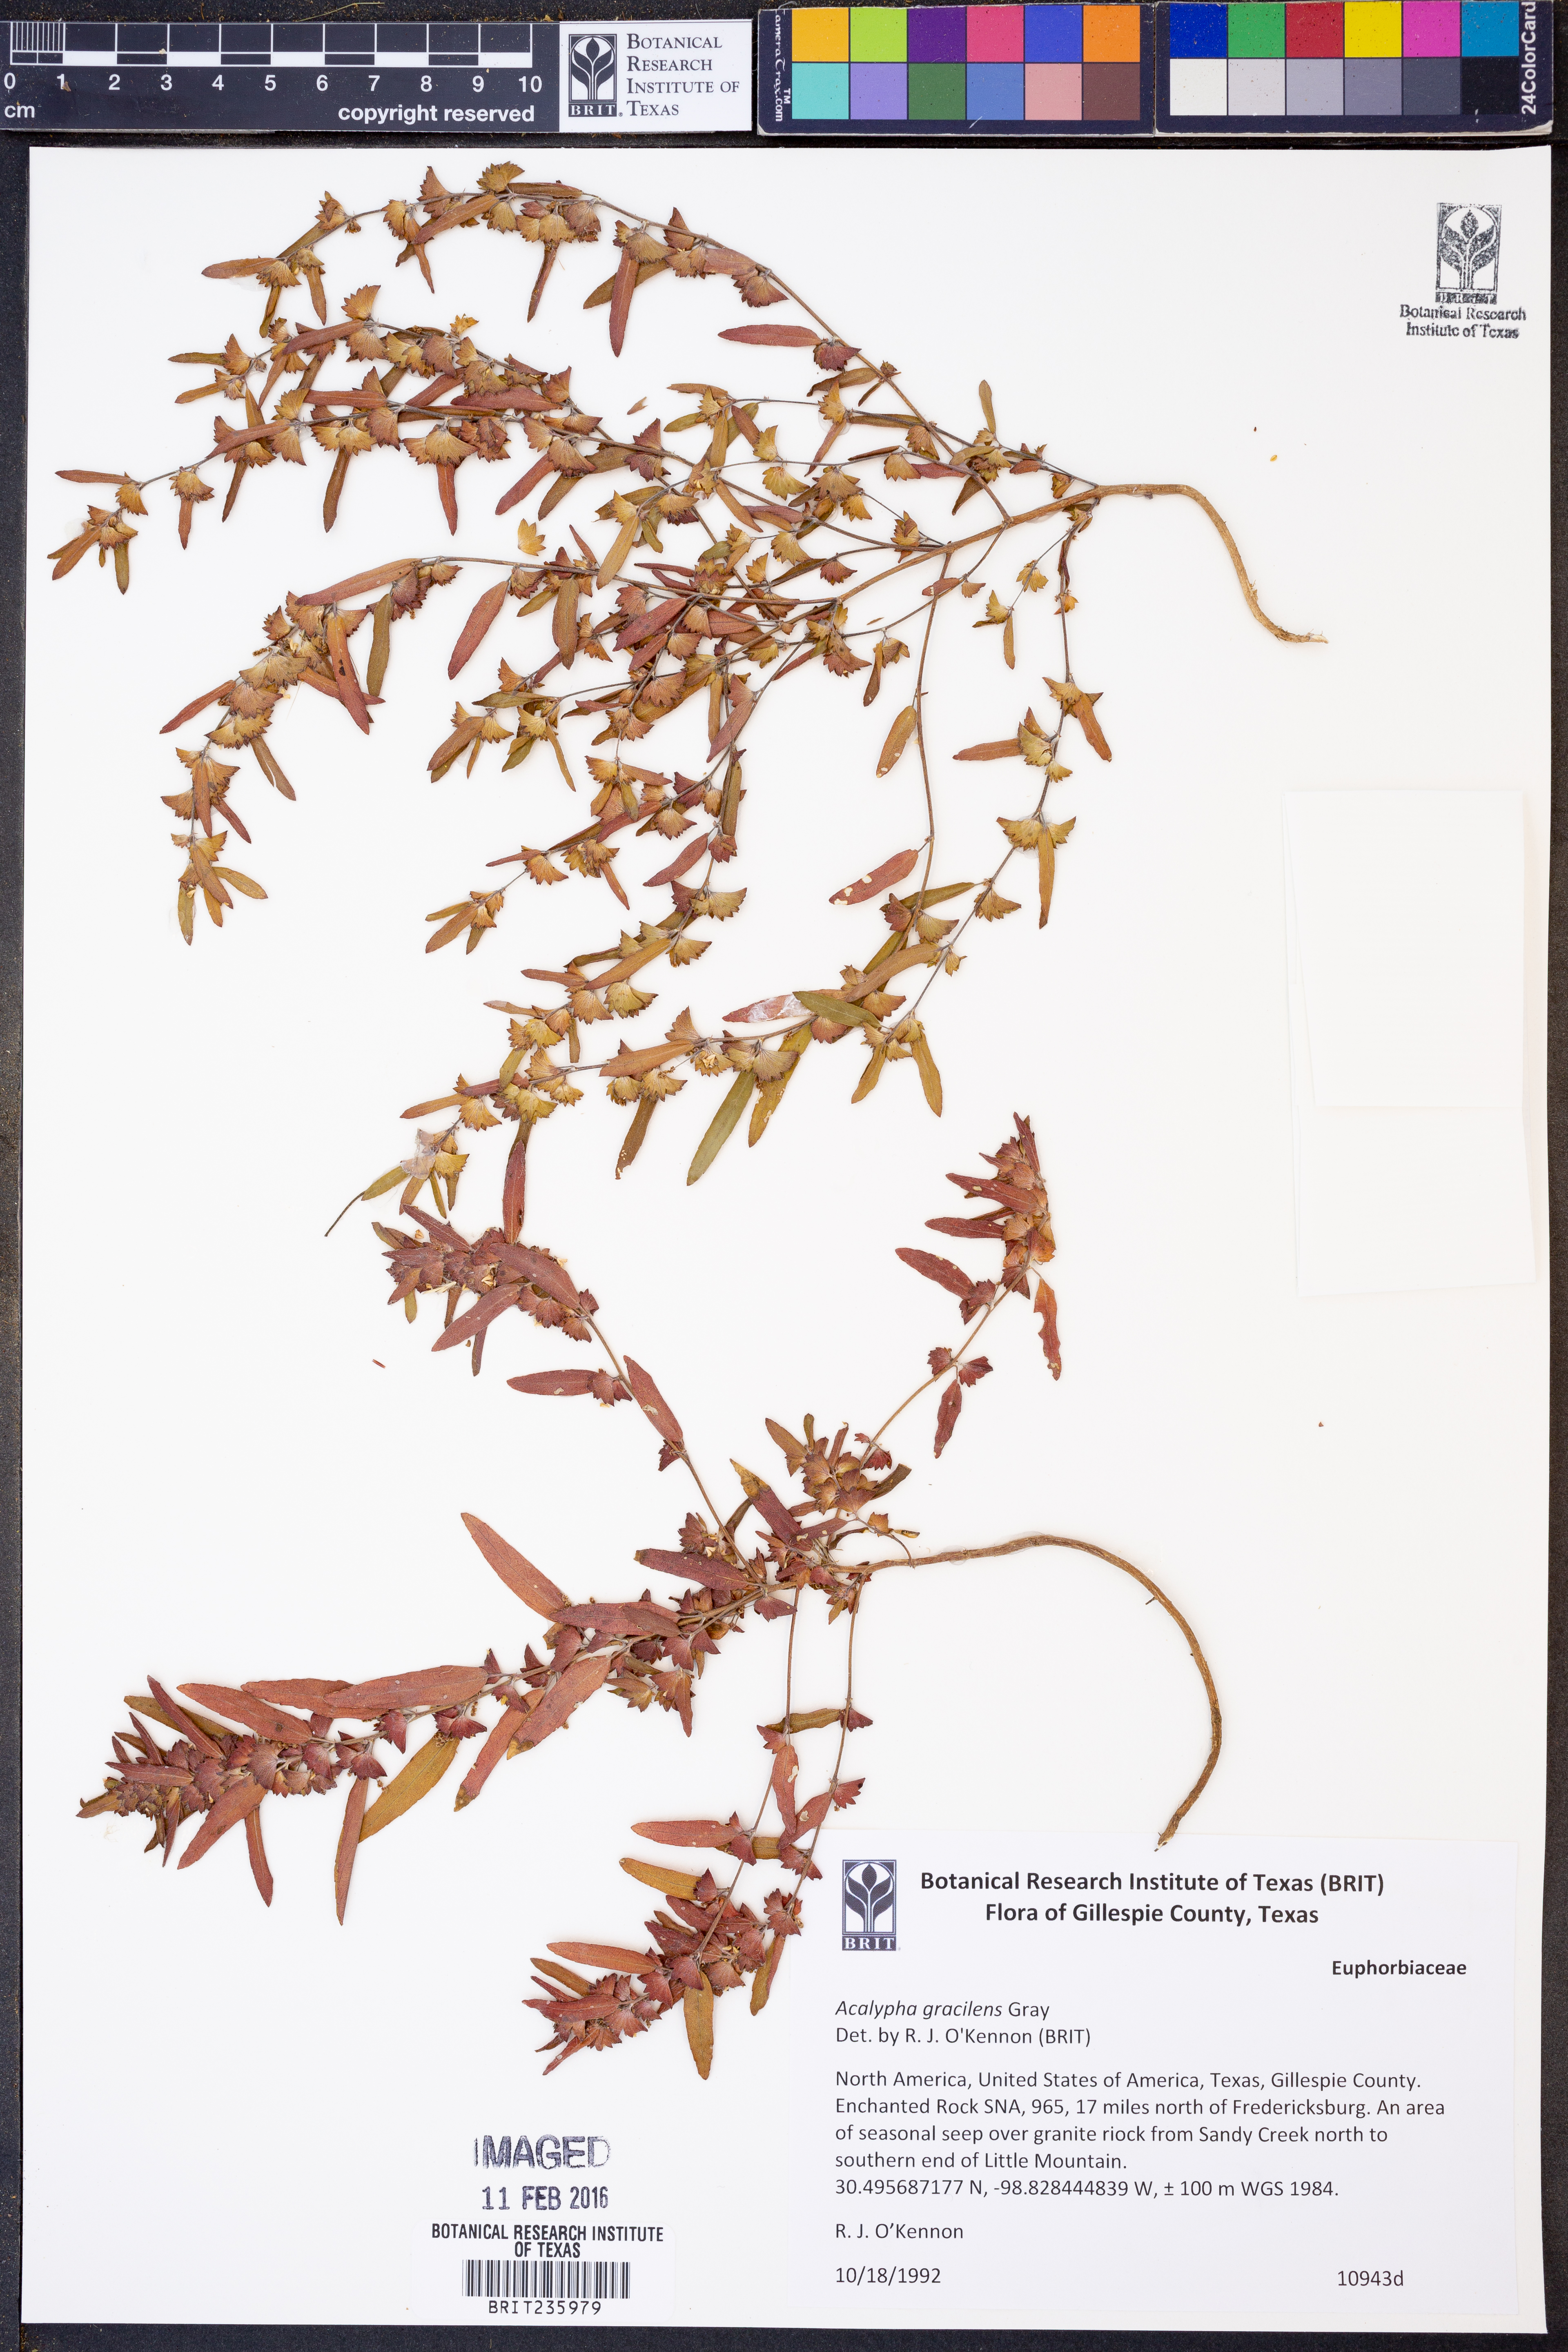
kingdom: Plantae
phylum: Tracheophyta
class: Magnoliopsida
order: Malpighiales
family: Euphorbiaceae
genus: Acalypha
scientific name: Acalypha gracilens
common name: Slender three-seeded mercury
